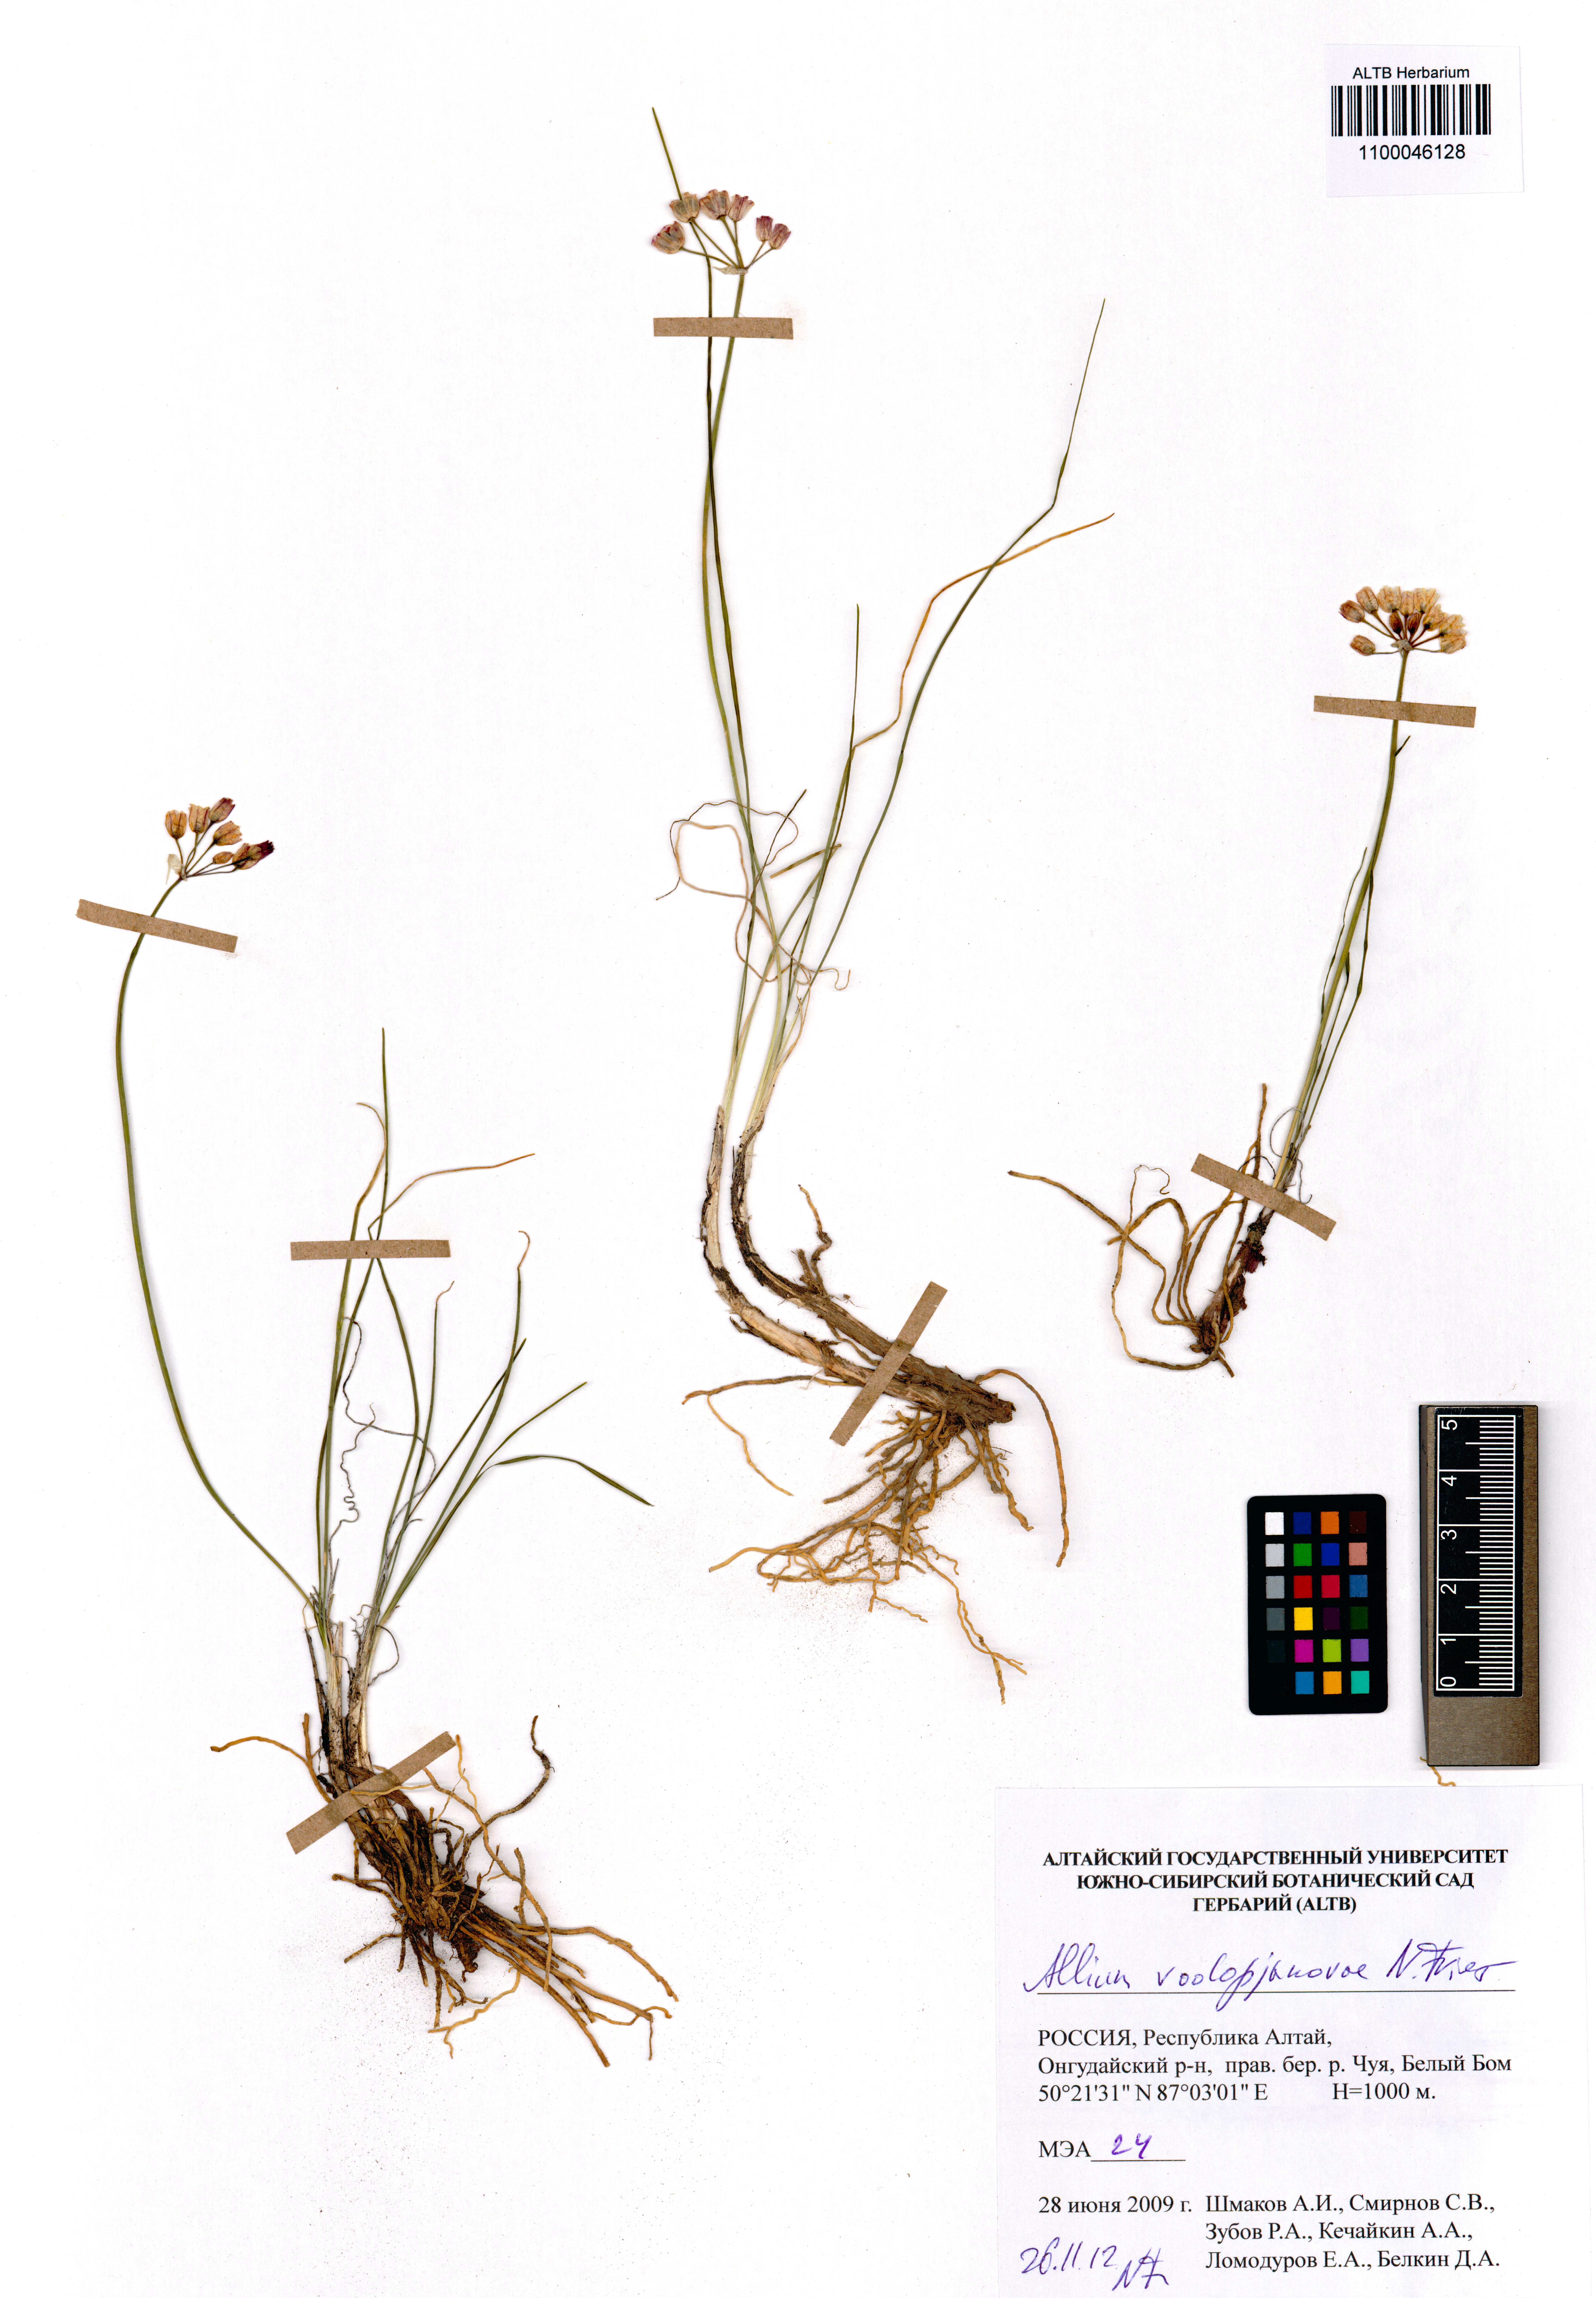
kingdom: Plantae
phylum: Tracheophyta
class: Liliopsida
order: Asparagales
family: Amaryllidaceae
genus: Allium
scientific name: Allium vodopjanovae
